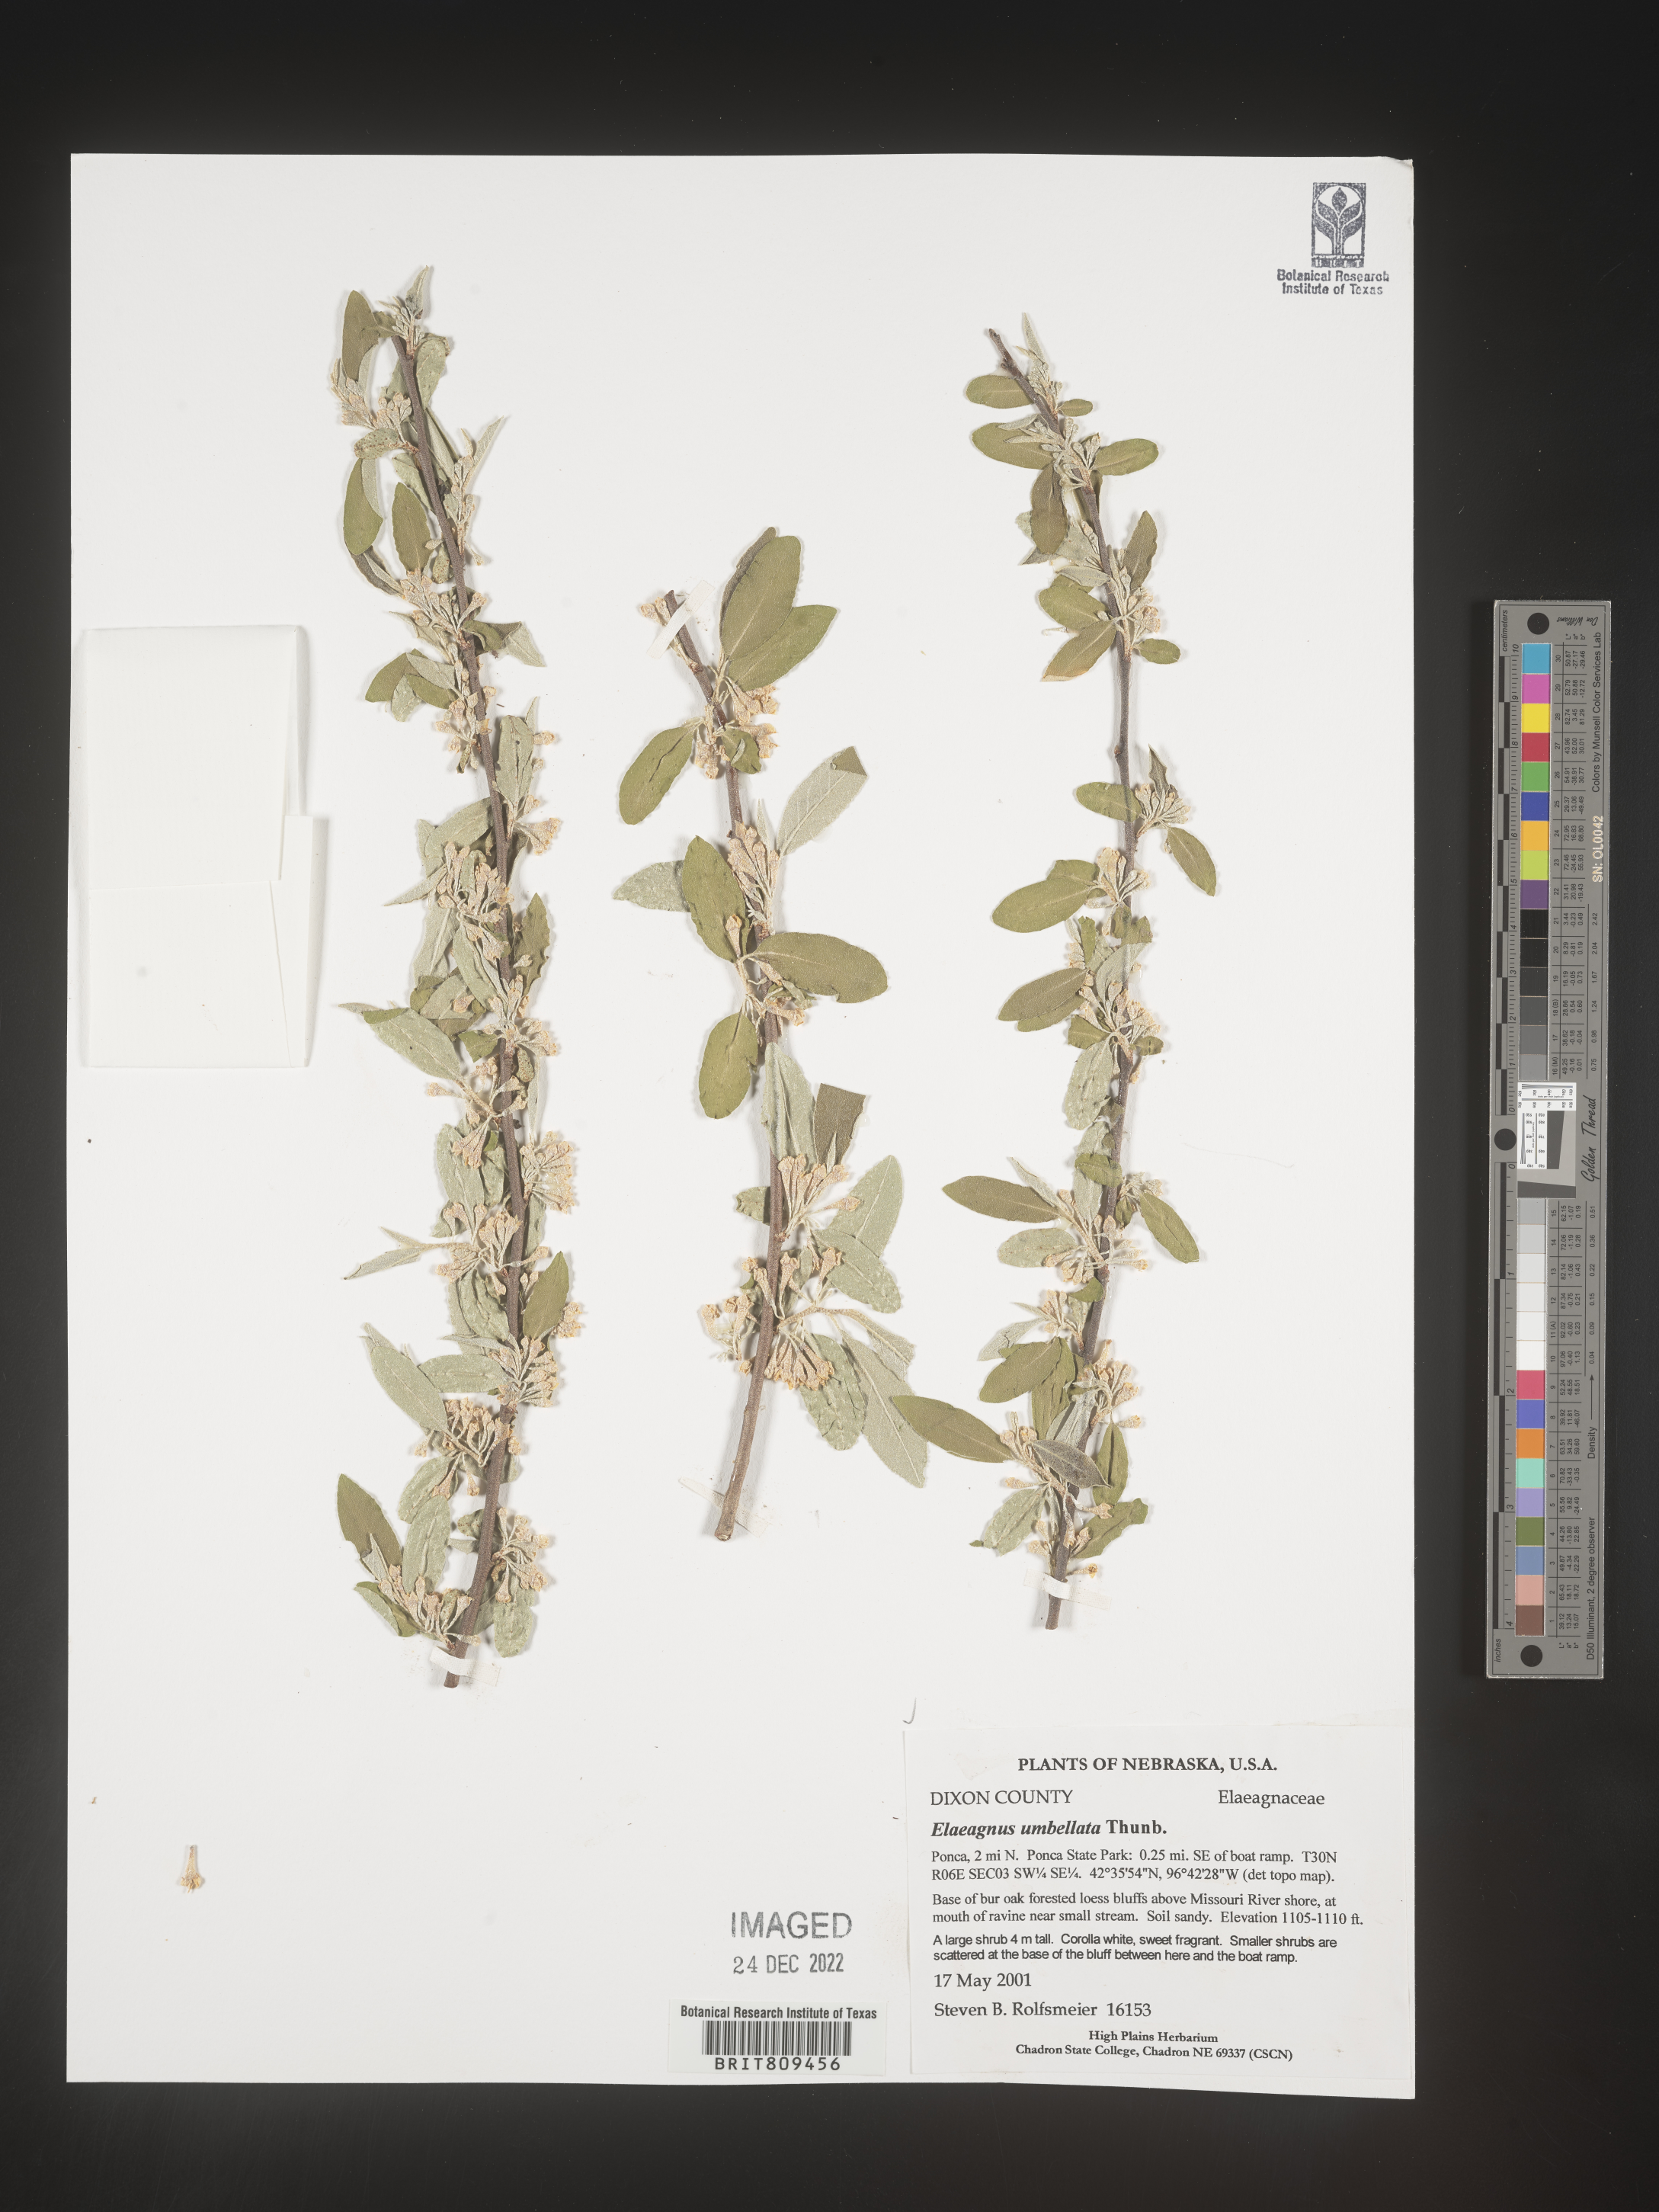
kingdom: Plantae
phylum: Tracheophyta
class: Magnoliopsida
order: Rosales
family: Elaeagnaceae
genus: Elaeagnus
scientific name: Elaeagnus
